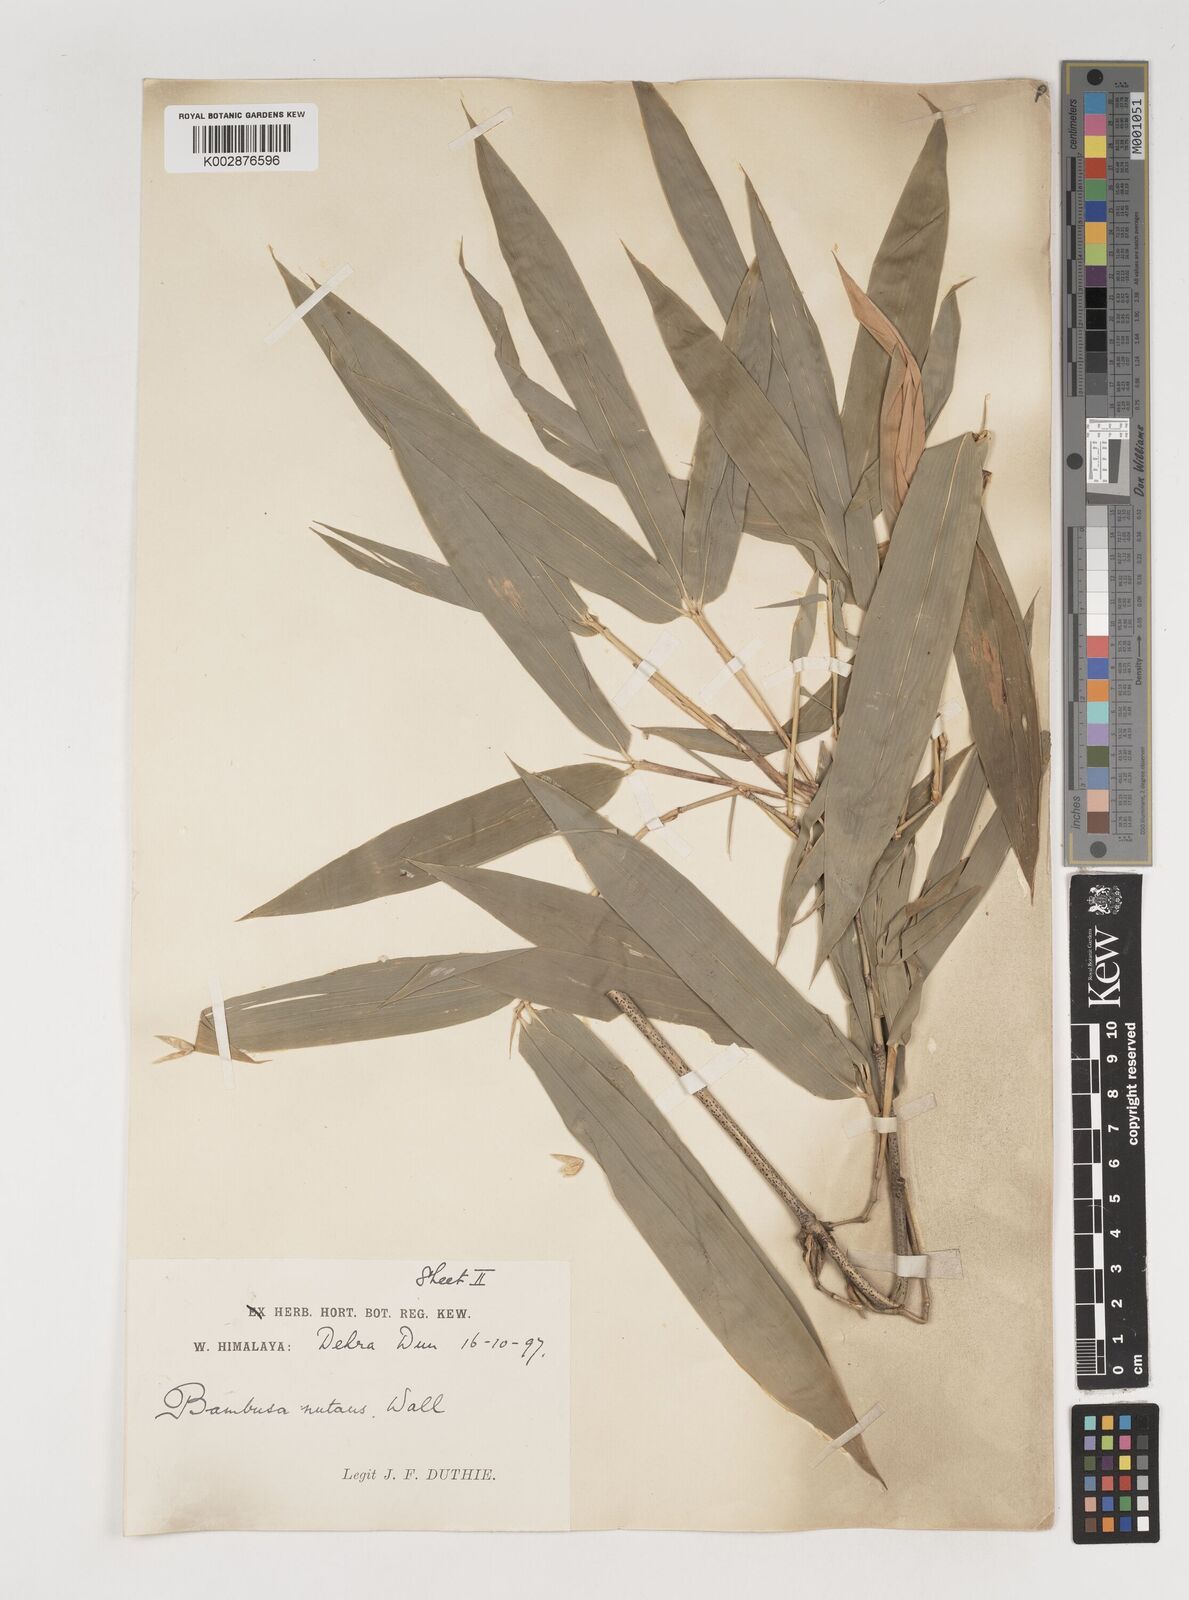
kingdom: Plantae
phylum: Tracheophyta
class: Liliopsida
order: Poales
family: Poaceae
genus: Bambusa
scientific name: Bambusa nutans
